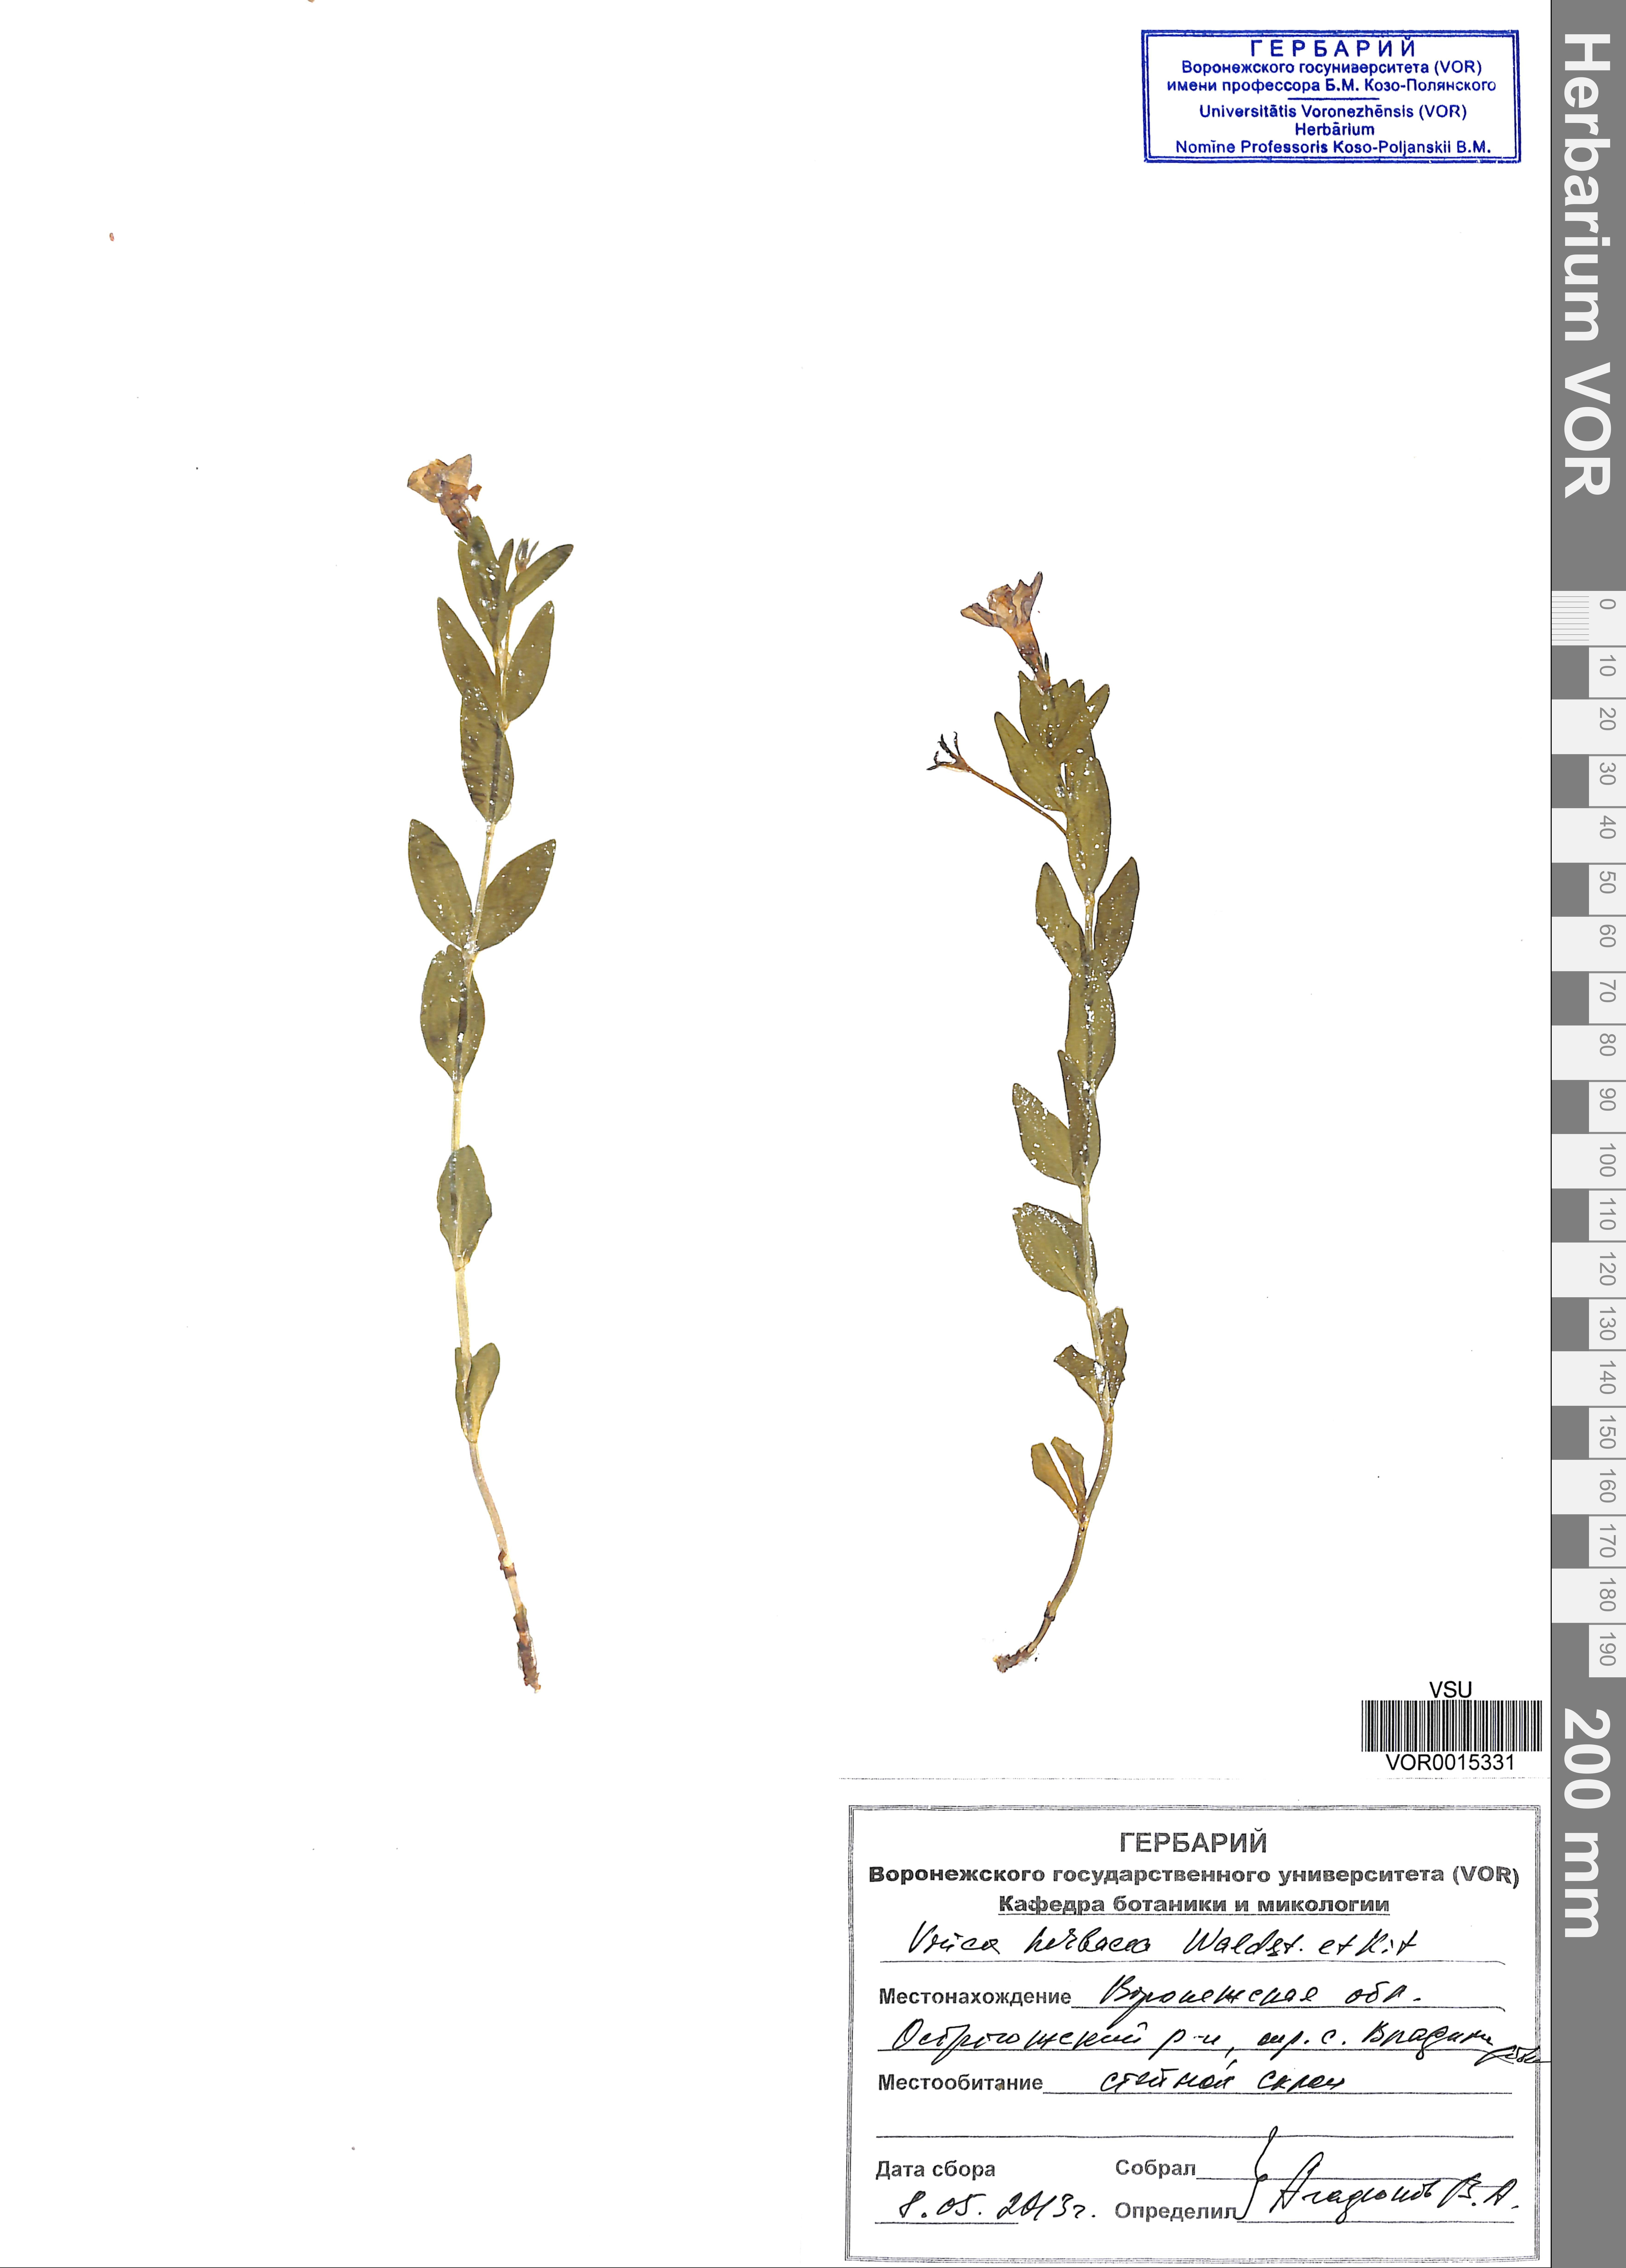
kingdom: Plantae
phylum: Tracheophyta
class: Magnoliopsida
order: Gentianales
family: Apocynaceae
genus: Vinca
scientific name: Vinca herbacea
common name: Herbaceous periwinkle
